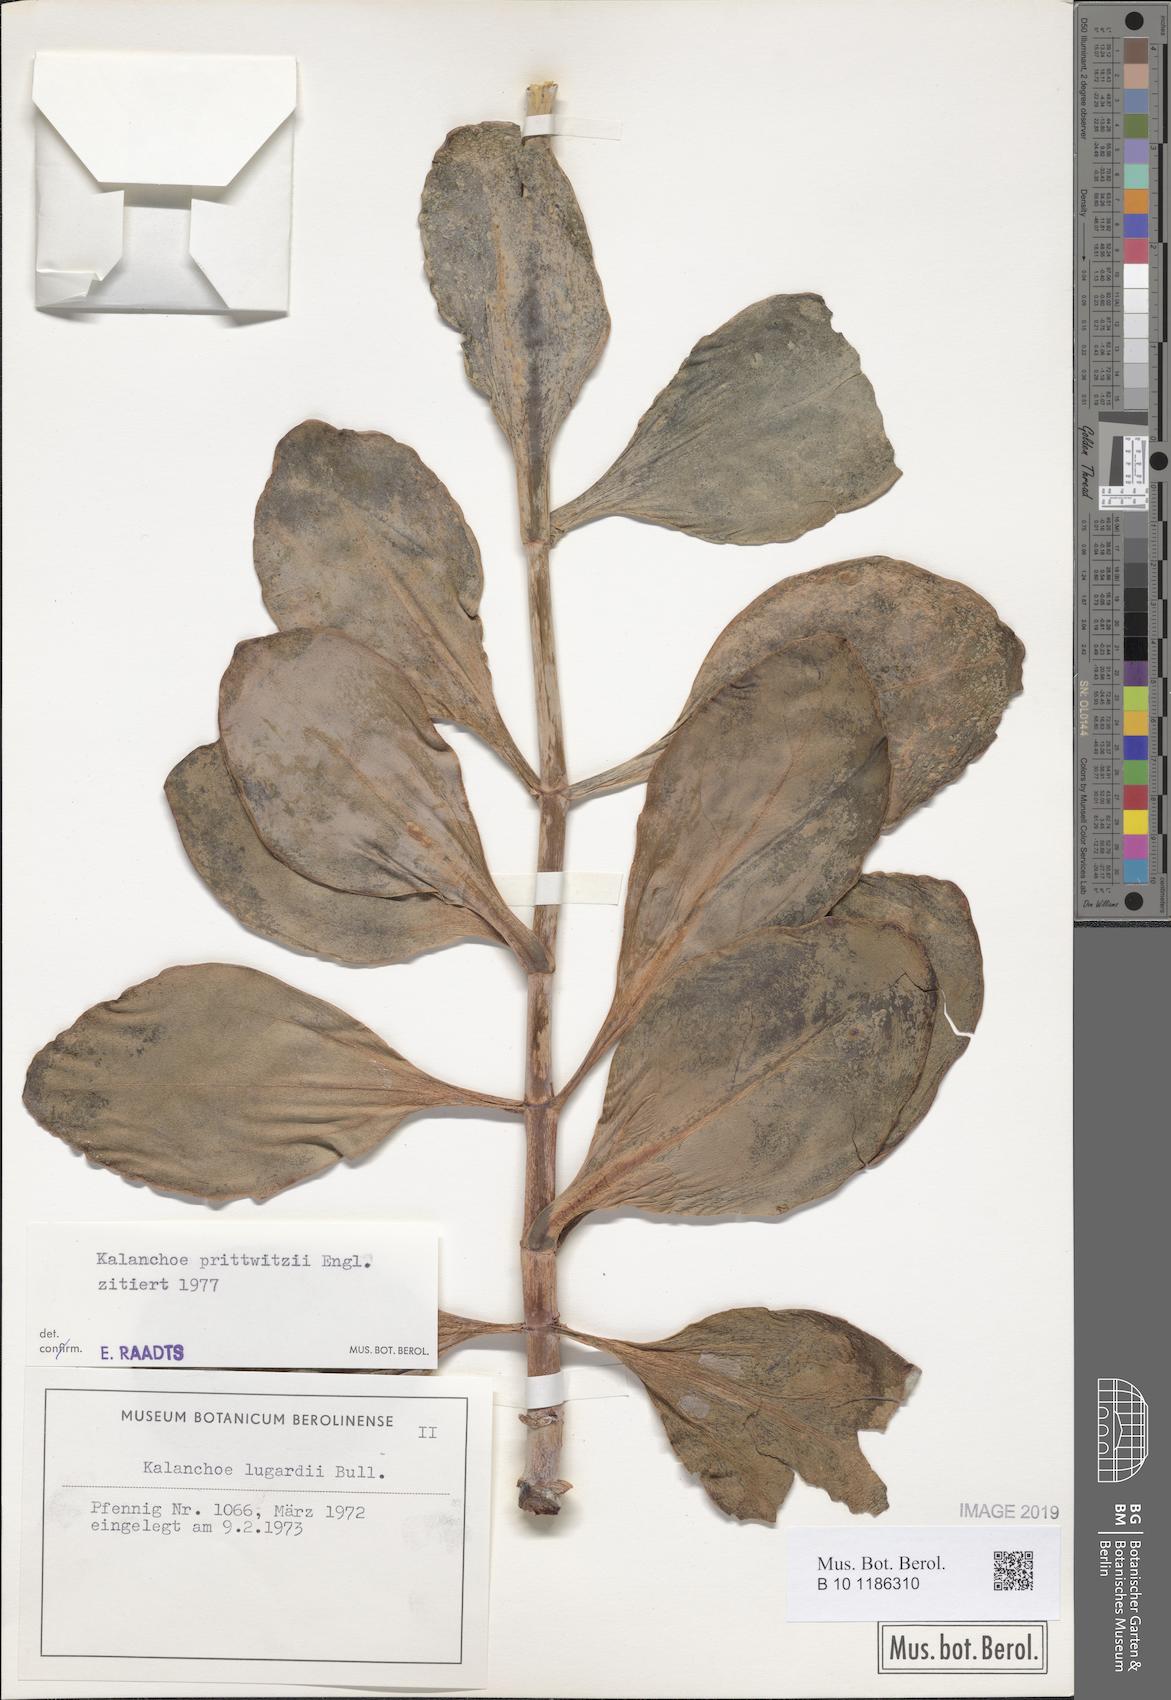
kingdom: Plantae
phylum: Tracheophyta
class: Magnoliopsida
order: Saxifragales
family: Crassulaceae
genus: Kalanchoe
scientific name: Kalanchoe prittwitzii
